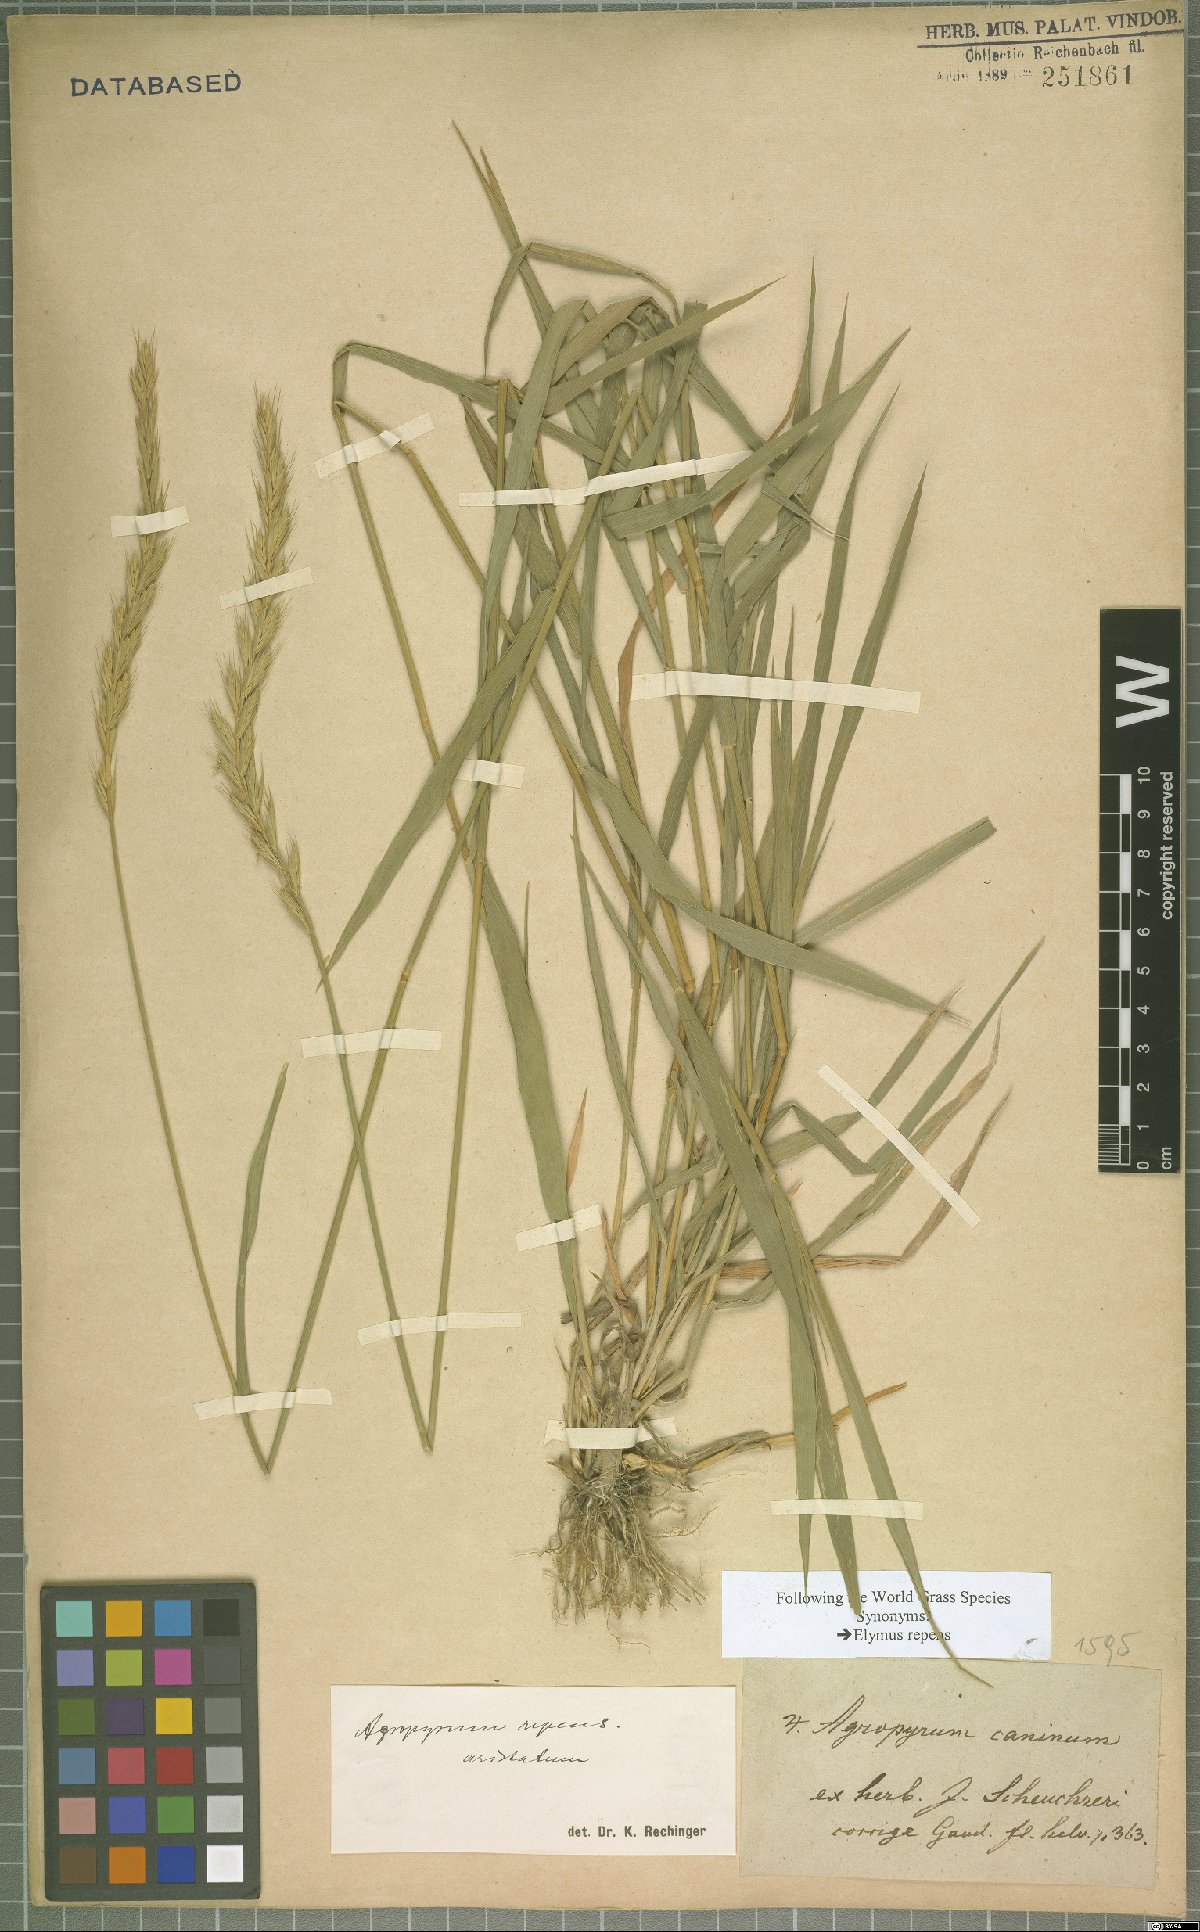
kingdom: Plantae
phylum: Tracheophyta
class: Liliopsida
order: Poales
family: Poaceae
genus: Elymus
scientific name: Elymus repens
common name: Quackgrass
